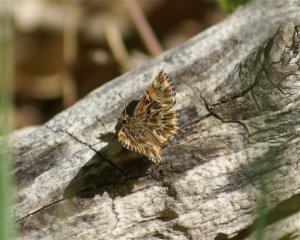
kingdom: Animalia
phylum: Arthropoda
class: Insecta
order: Lepidoptera
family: Hesperiidae
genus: Celotes
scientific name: Celotes nessus
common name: Common Streaky-Skipper
